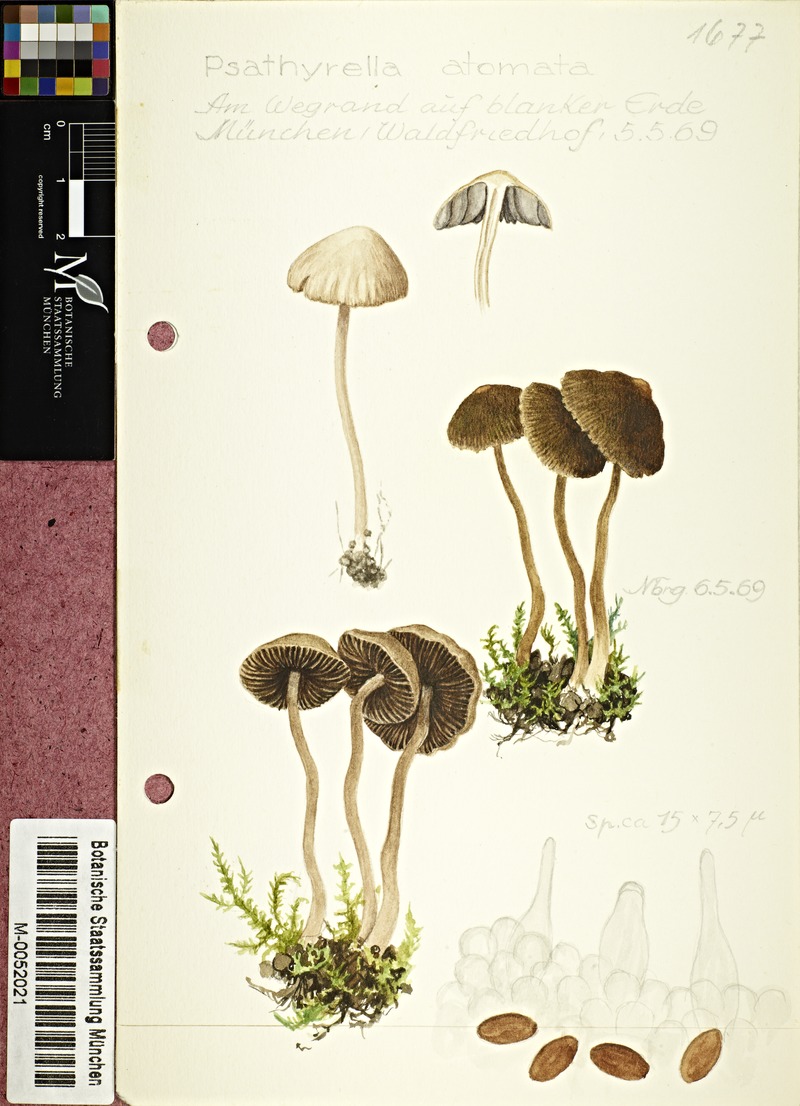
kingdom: Fungi
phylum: Basidiomycota
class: Agaricomycetes
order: Agaricales
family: Psathyrellaceae
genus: Psathyrella
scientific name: Psathyrella atomata
